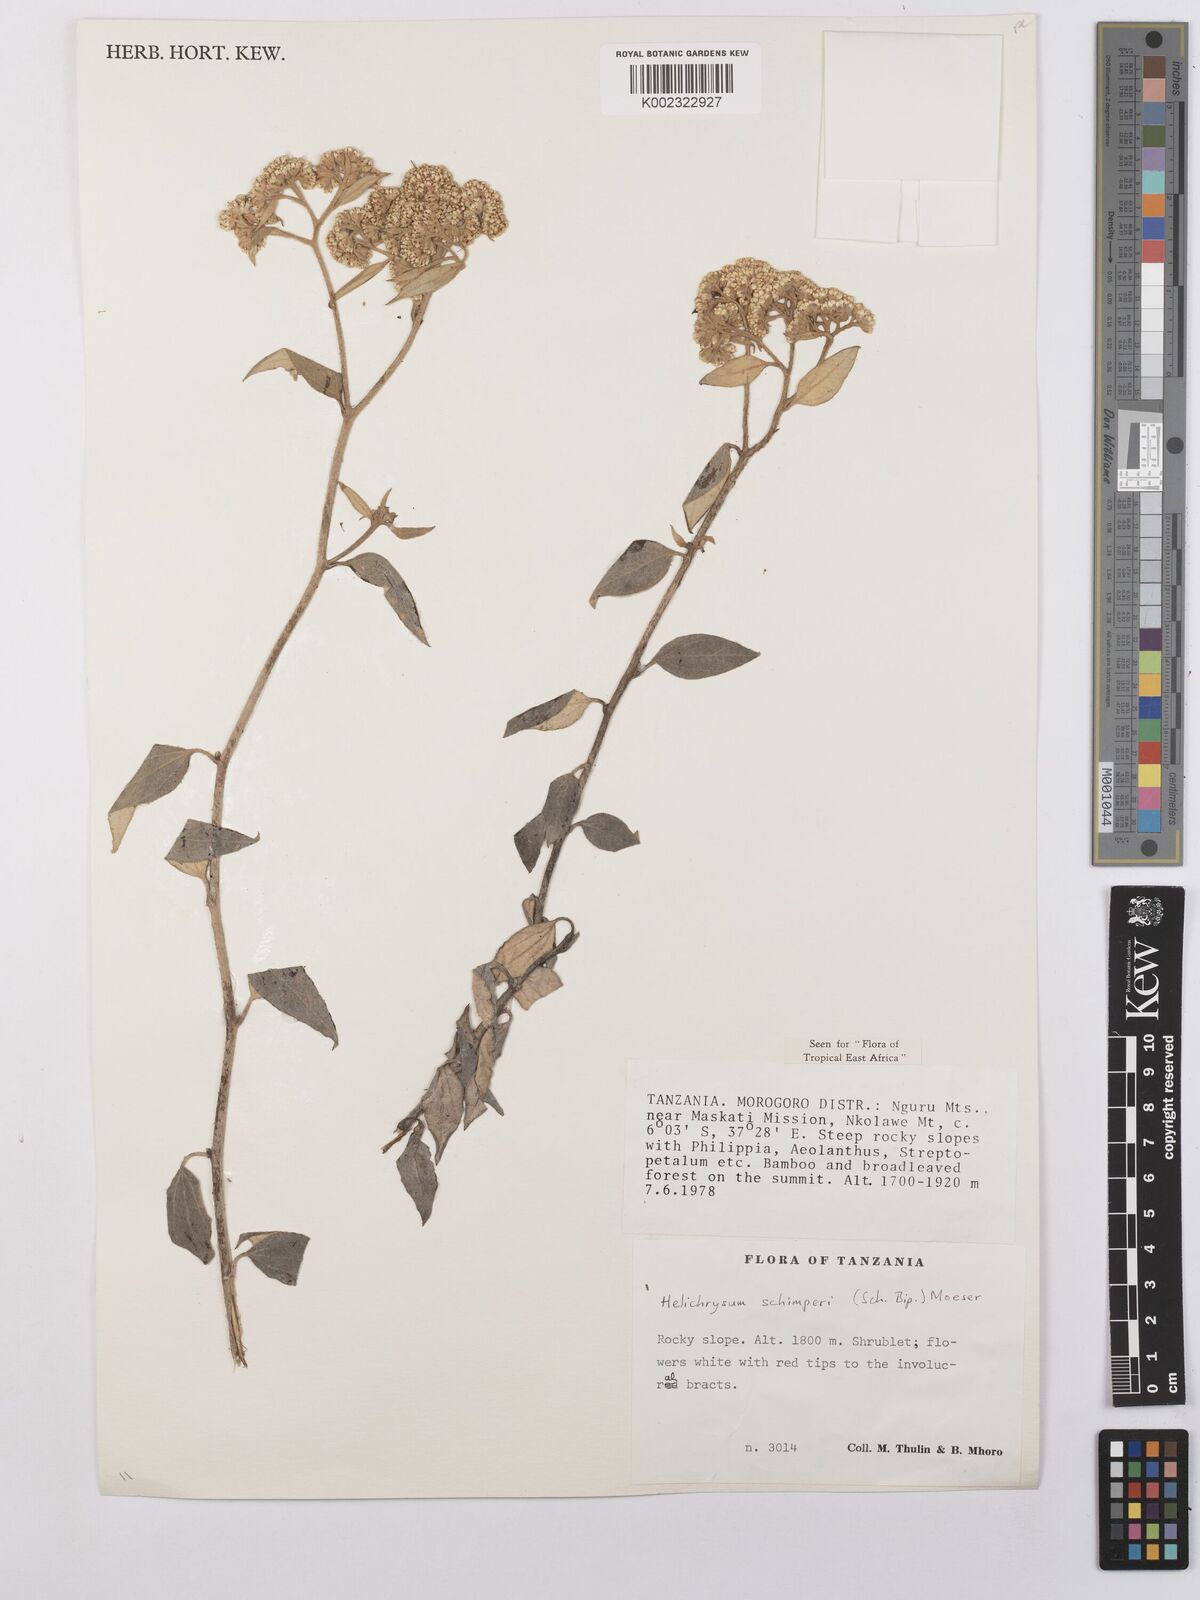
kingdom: Plantae
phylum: Tracheophyta
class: Magnoliopsida
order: Asterales
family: Asteraceae
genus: Helichrysum
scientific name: Helichrysum schimperi
